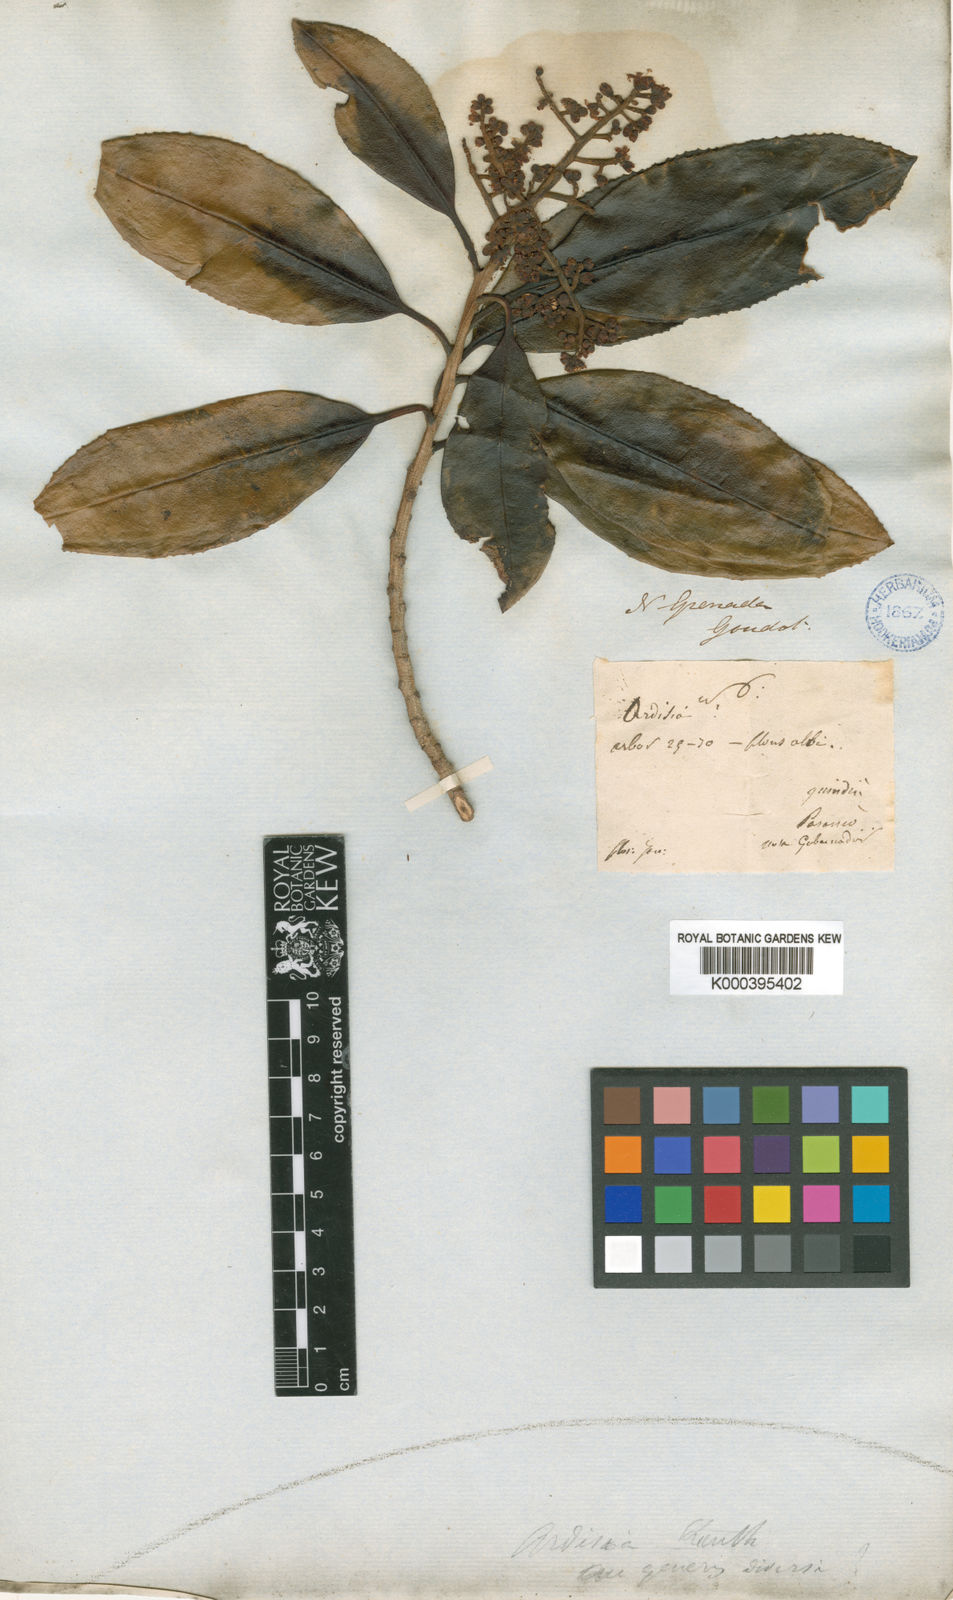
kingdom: Plantae
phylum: Tracheophyta
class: Magnoliopsida
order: Ericales
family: Primulaceae
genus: Geissanthus
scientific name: Geissanthus goudotianus
